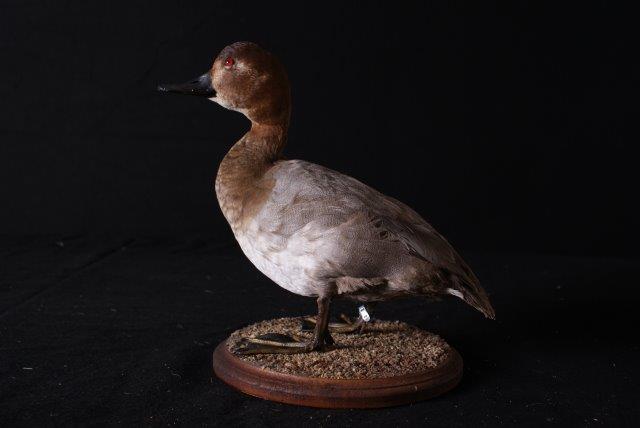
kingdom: Animalia
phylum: Chordata
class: Aves
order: Anseriformes
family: Anatidae
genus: Aythya
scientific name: Aythya ferina
